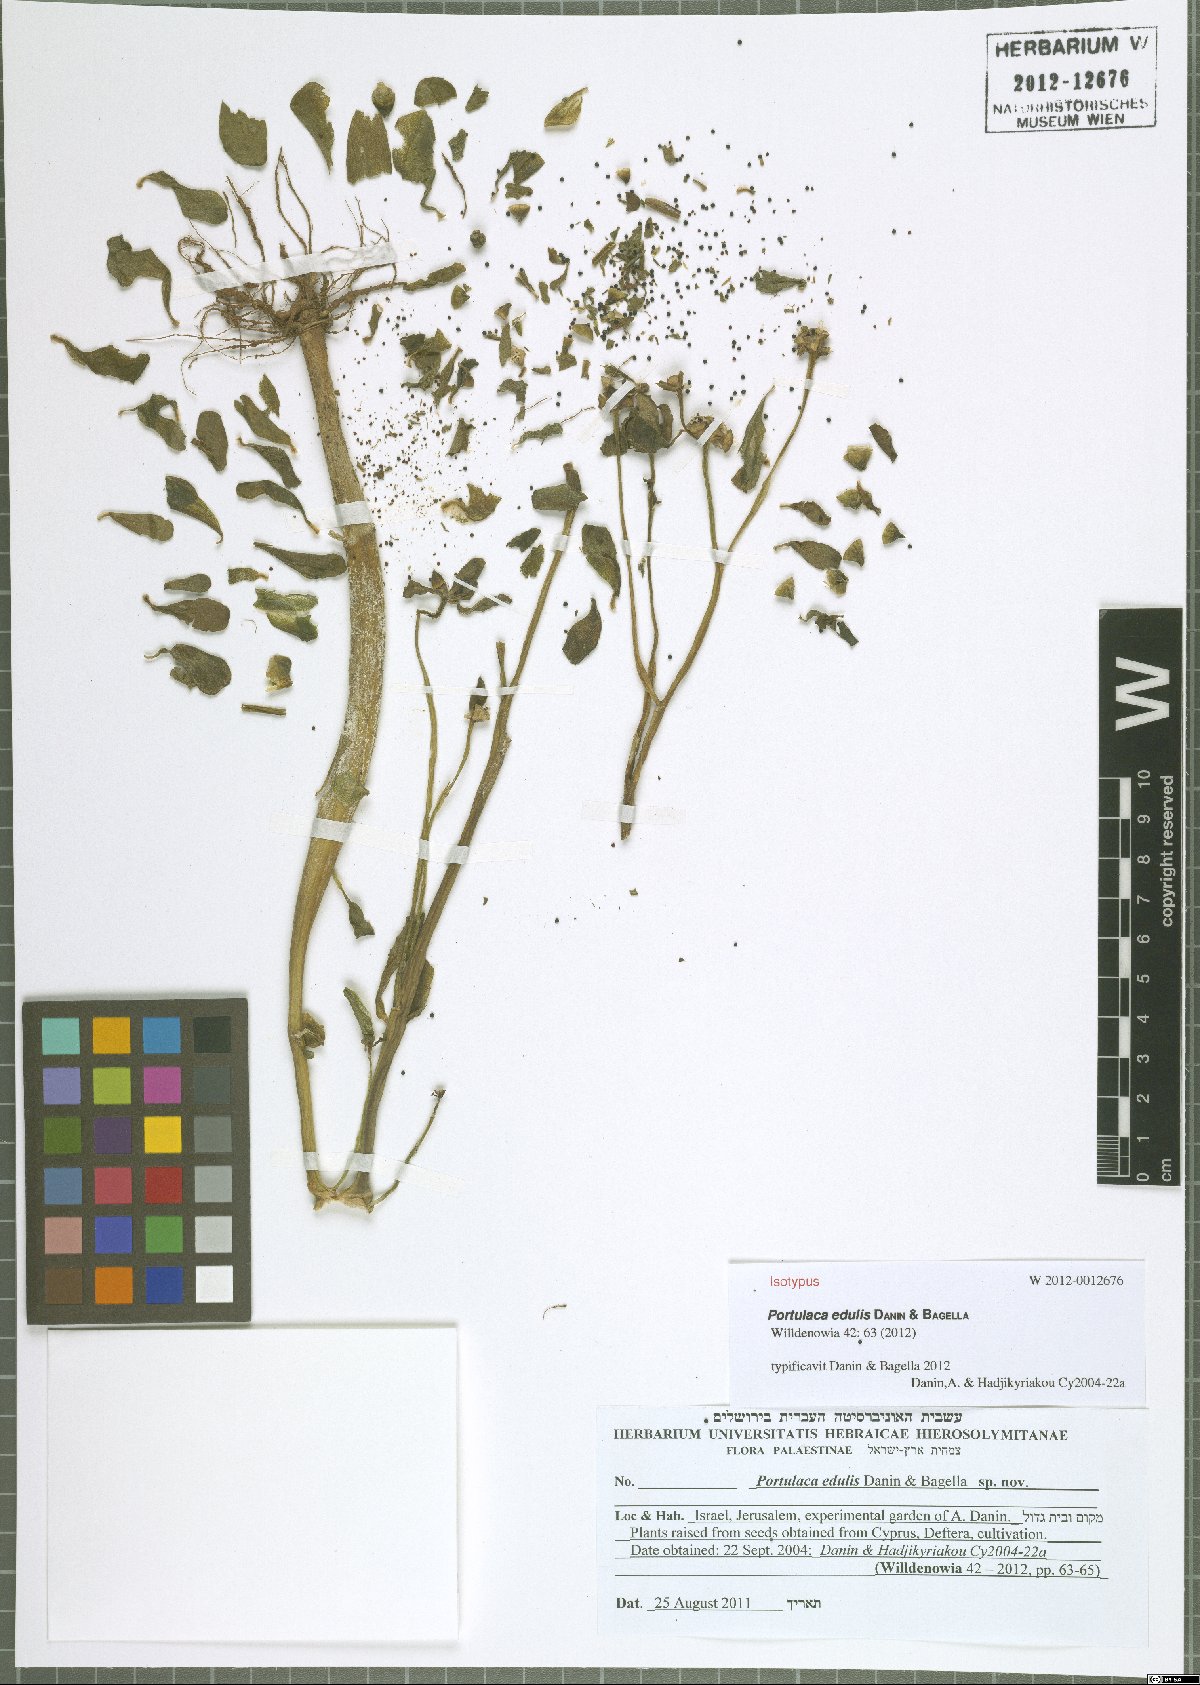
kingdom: Plantae
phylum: Tracheophyta
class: Magnoliopsida
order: Caryophyllales
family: Portulacaceae
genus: Portulaca
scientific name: Portulaca edulis
